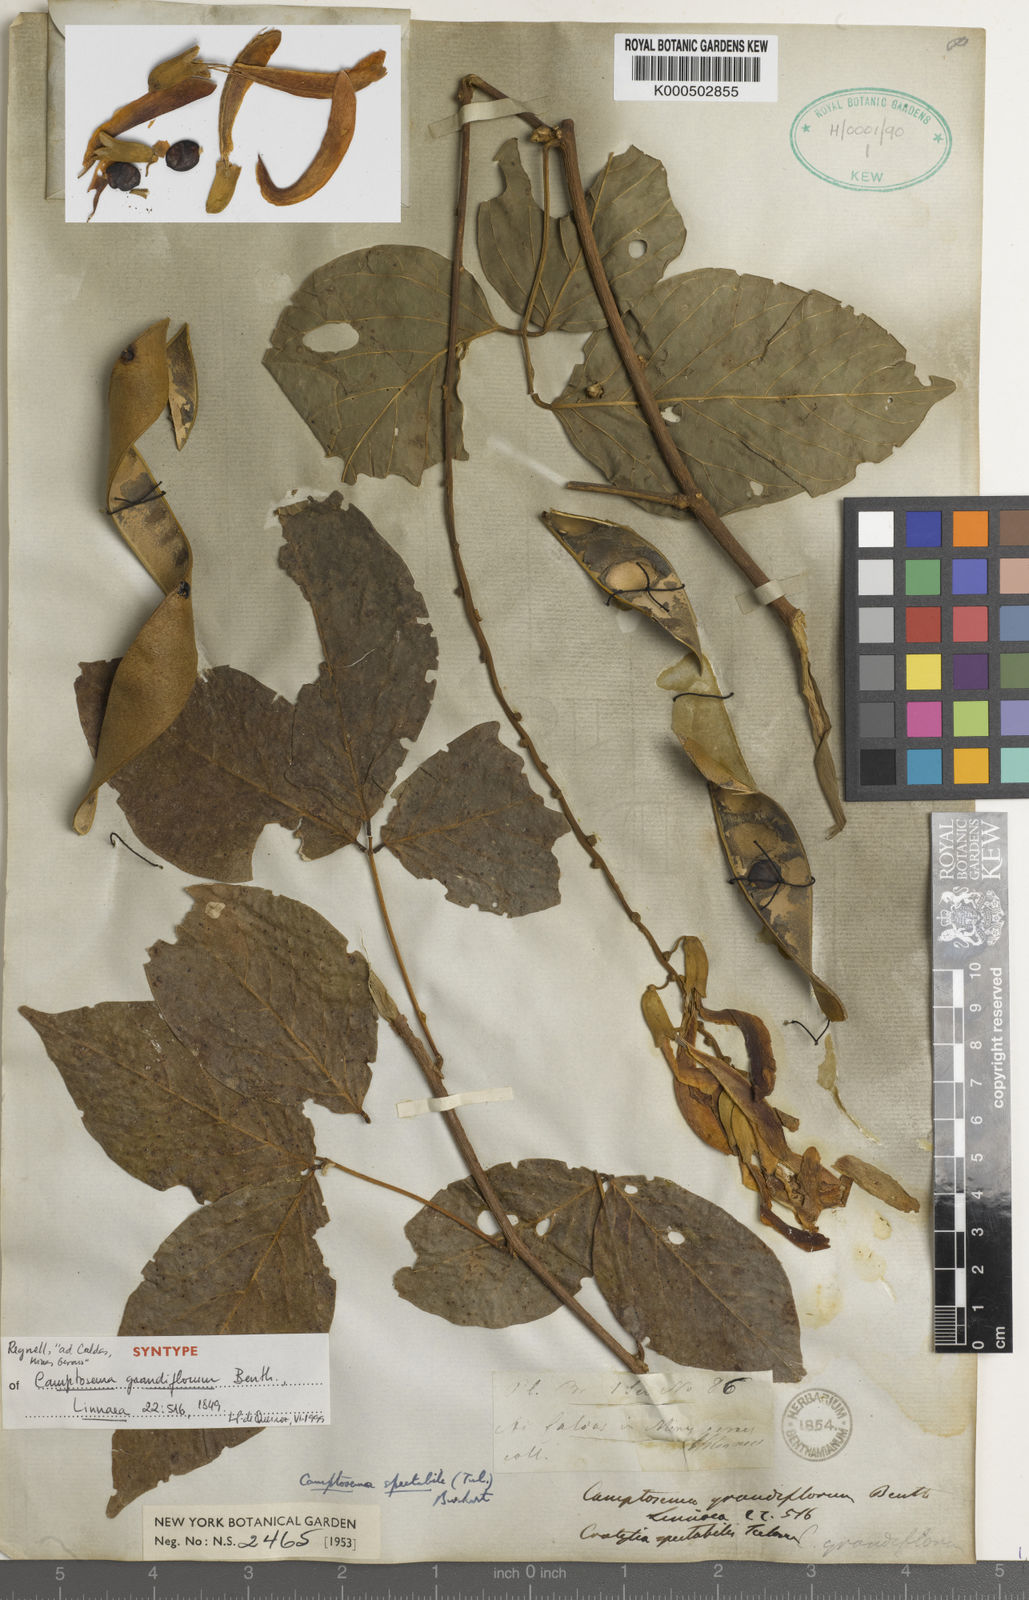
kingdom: Plantae
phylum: Tracheophyta
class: Magnoliopsida
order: Fabales
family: Fabaceae
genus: Camptosema
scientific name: Camptosema spectabile
